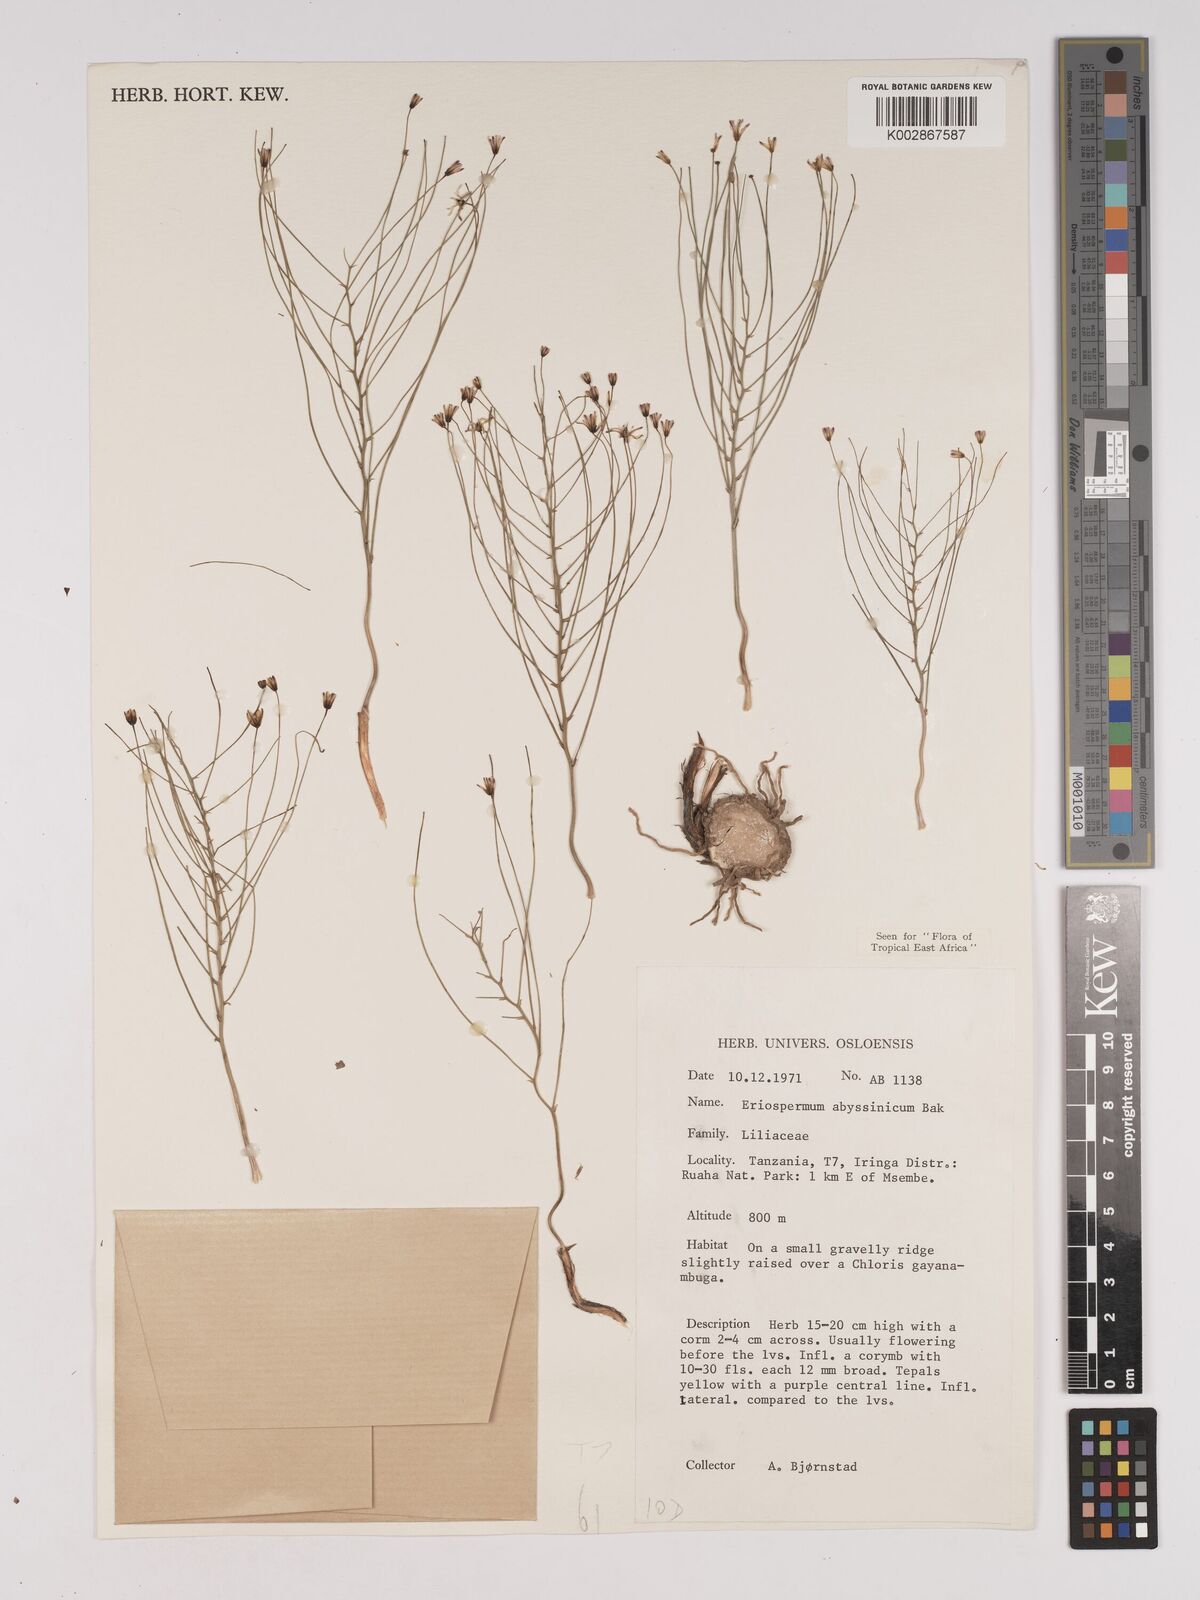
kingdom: Plantae
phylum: Tracheophyta
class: Liliopsida
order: Asparagales
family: Asparagaceae
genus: Eriospermum
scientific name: Eriospermum abyssinicum
